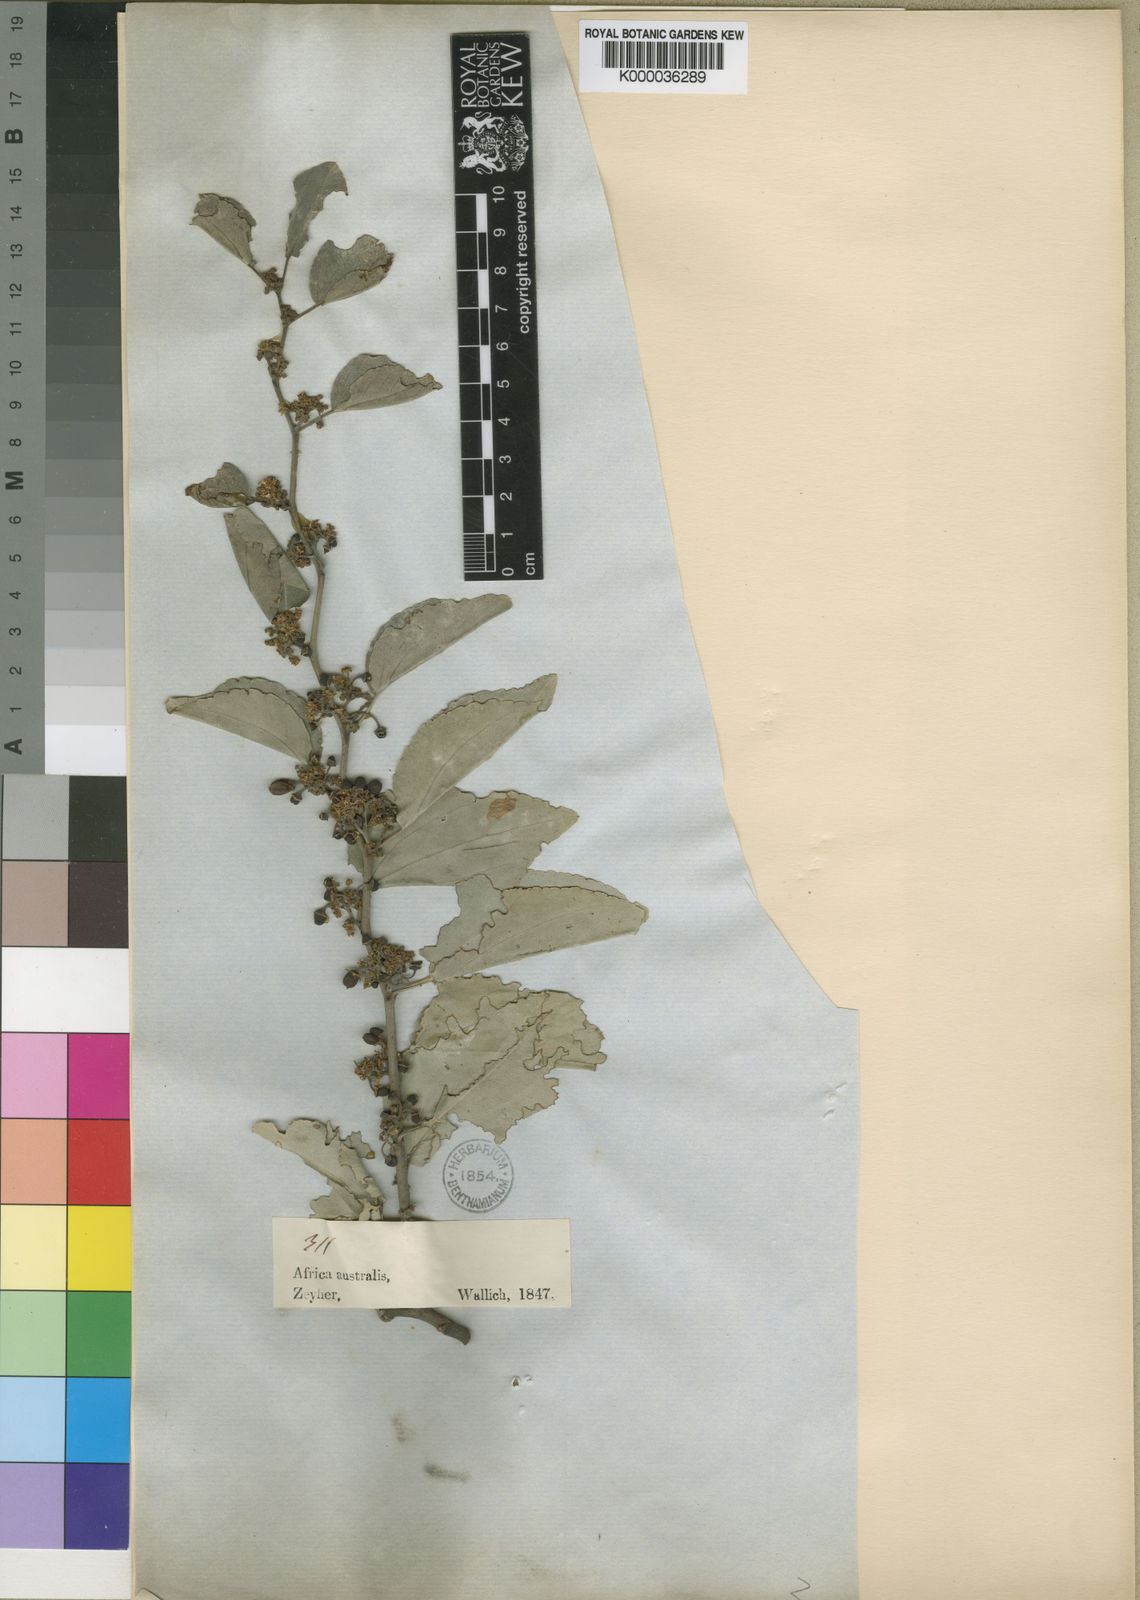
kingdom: Plantae
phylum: Tracheophyta
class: Magnoliopsida
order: Rosales
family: Rhamnaceae
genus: Ziziphus
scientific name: Ziziphus mucronata
